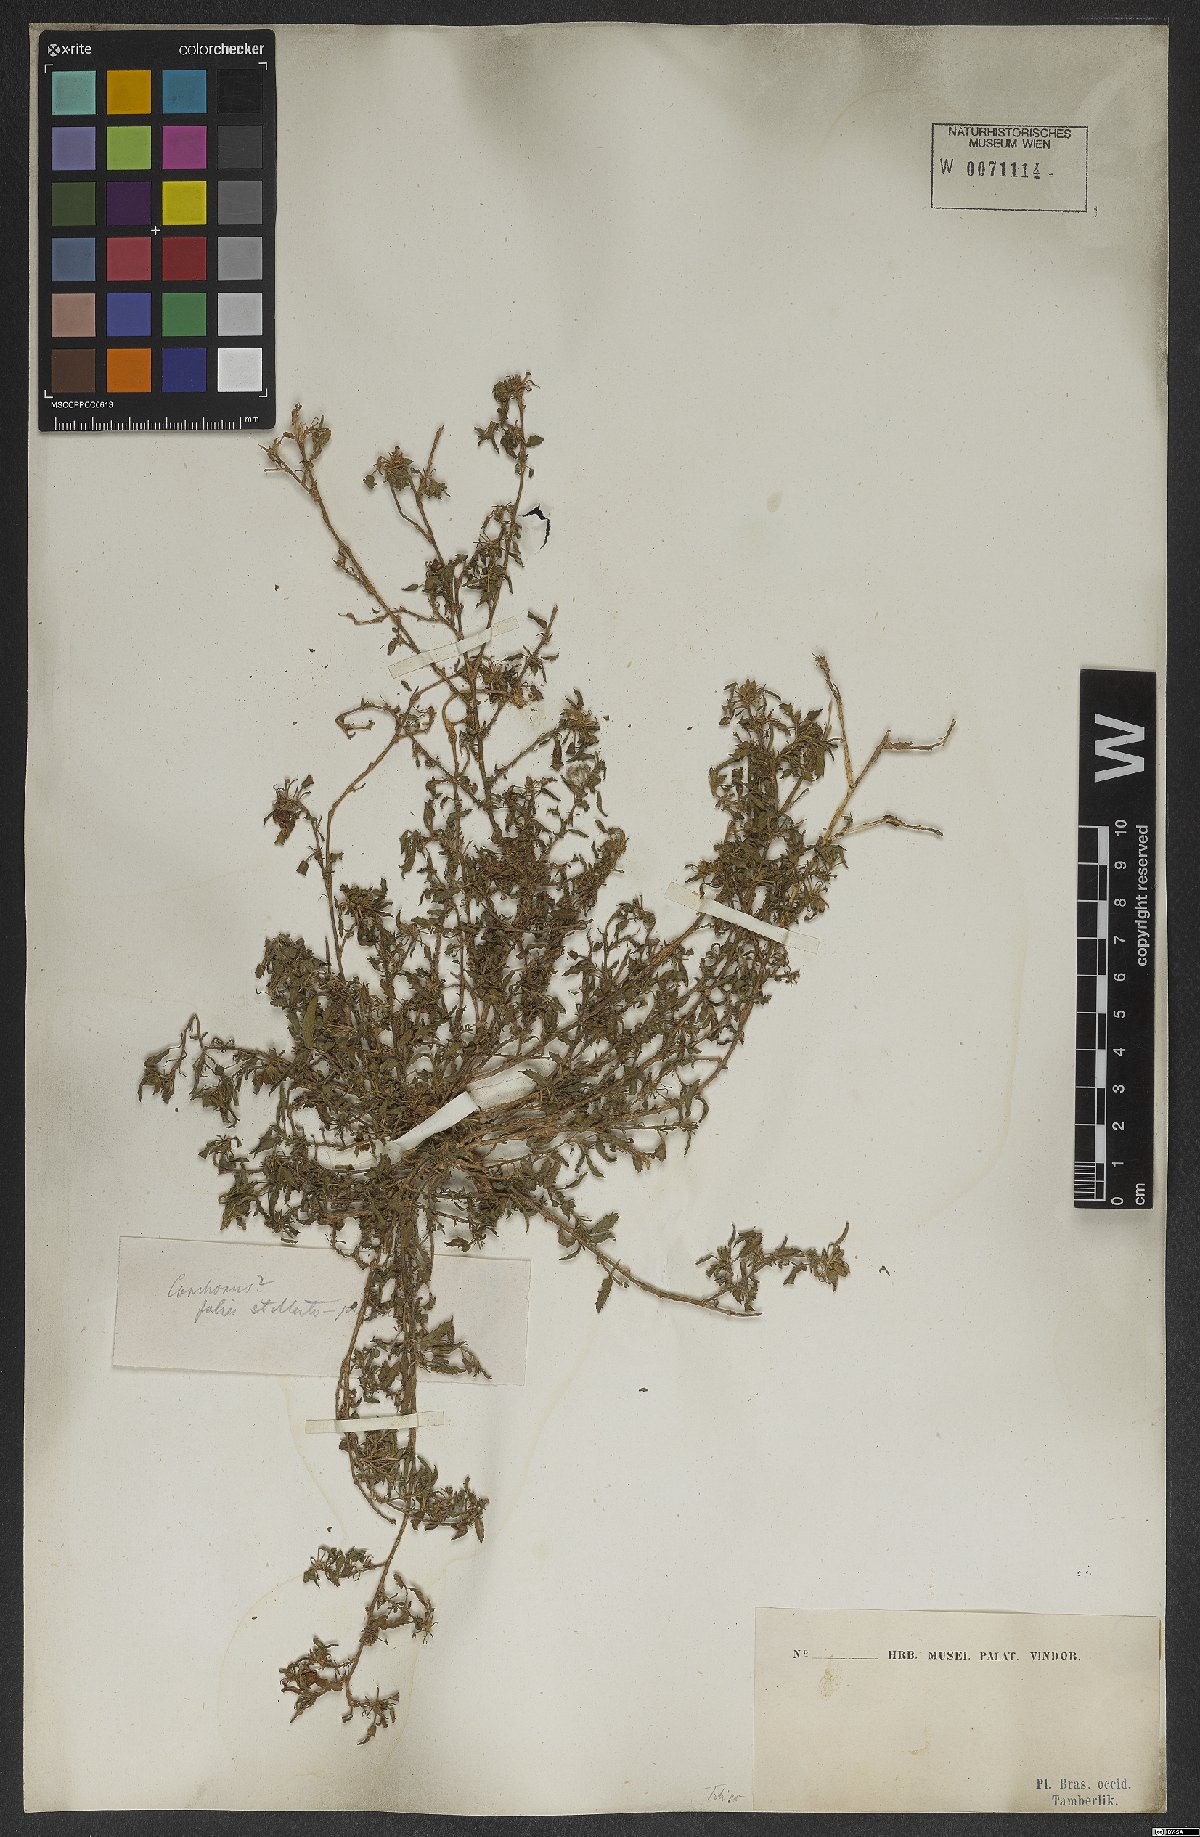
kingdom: Plantae
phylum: Tracheophyta
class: Magnoliopsida
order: Malvales
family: Malvaceae
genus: Corchorus
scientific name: Corchorus depressus
